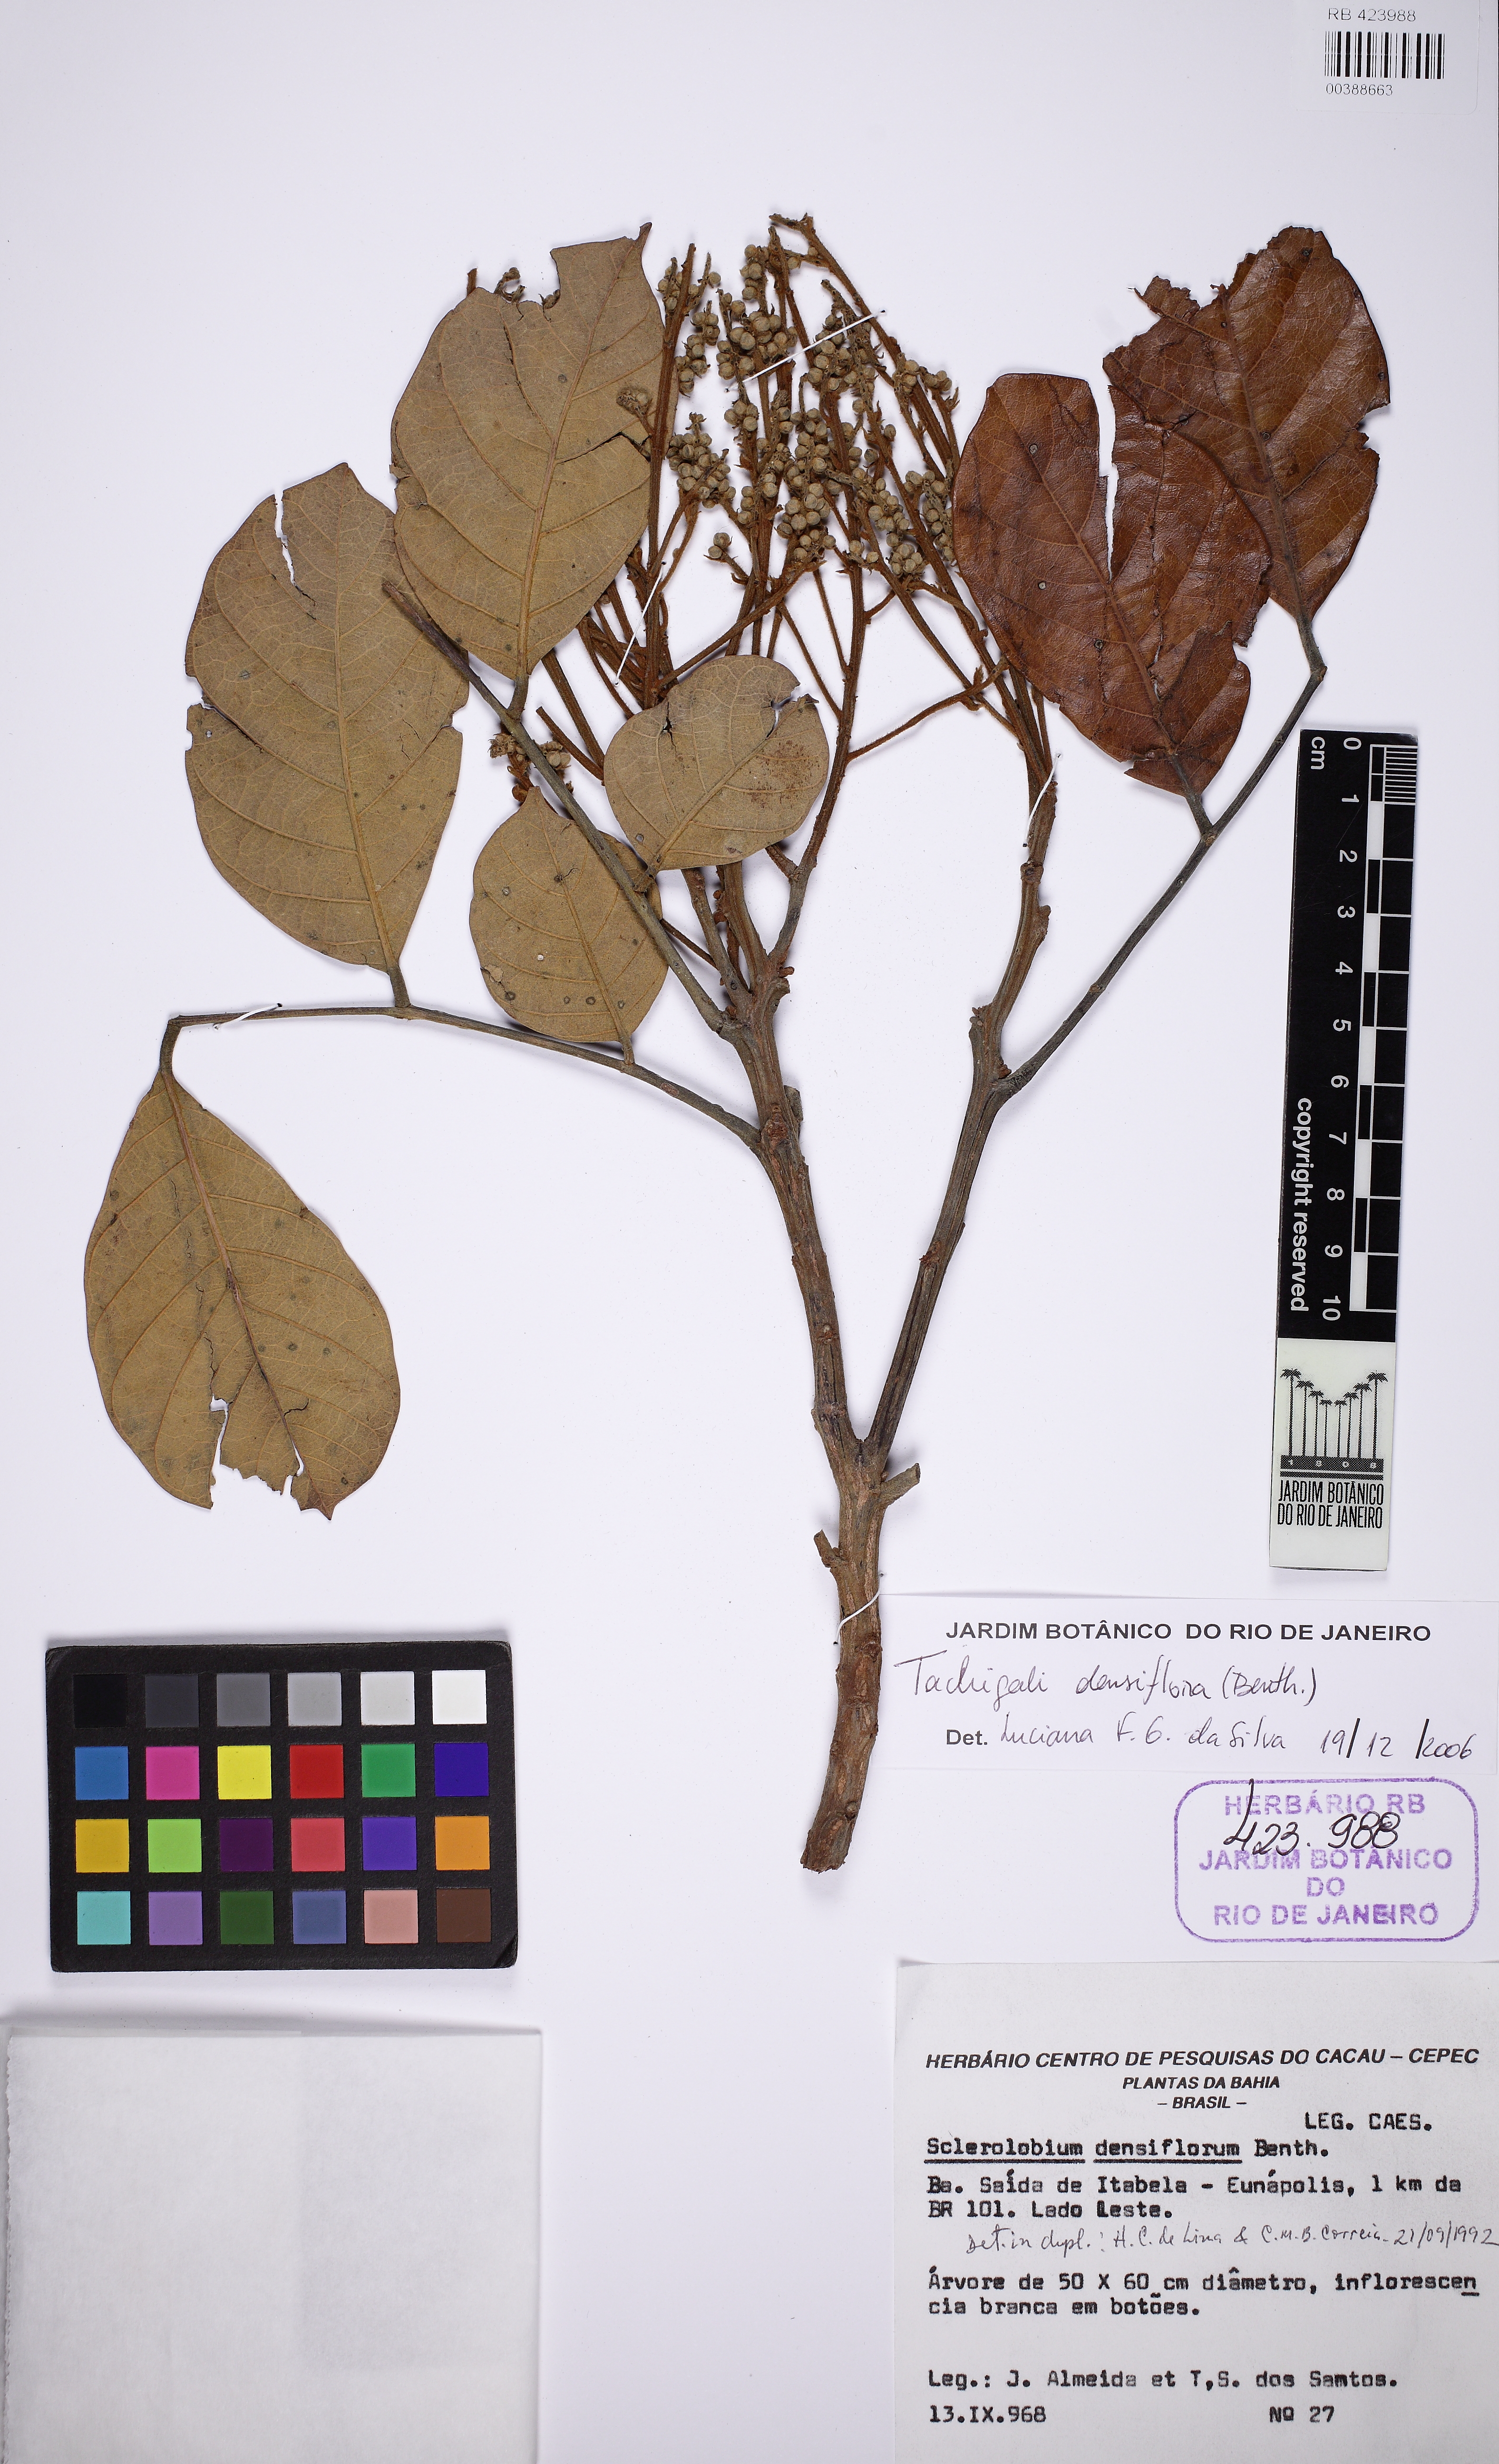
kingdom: Plantae
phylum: Tracheophyta
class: Magnoliopsida
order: Fabales
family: Fabaceae
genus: Tachigali
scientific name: Tachigali densiflora
